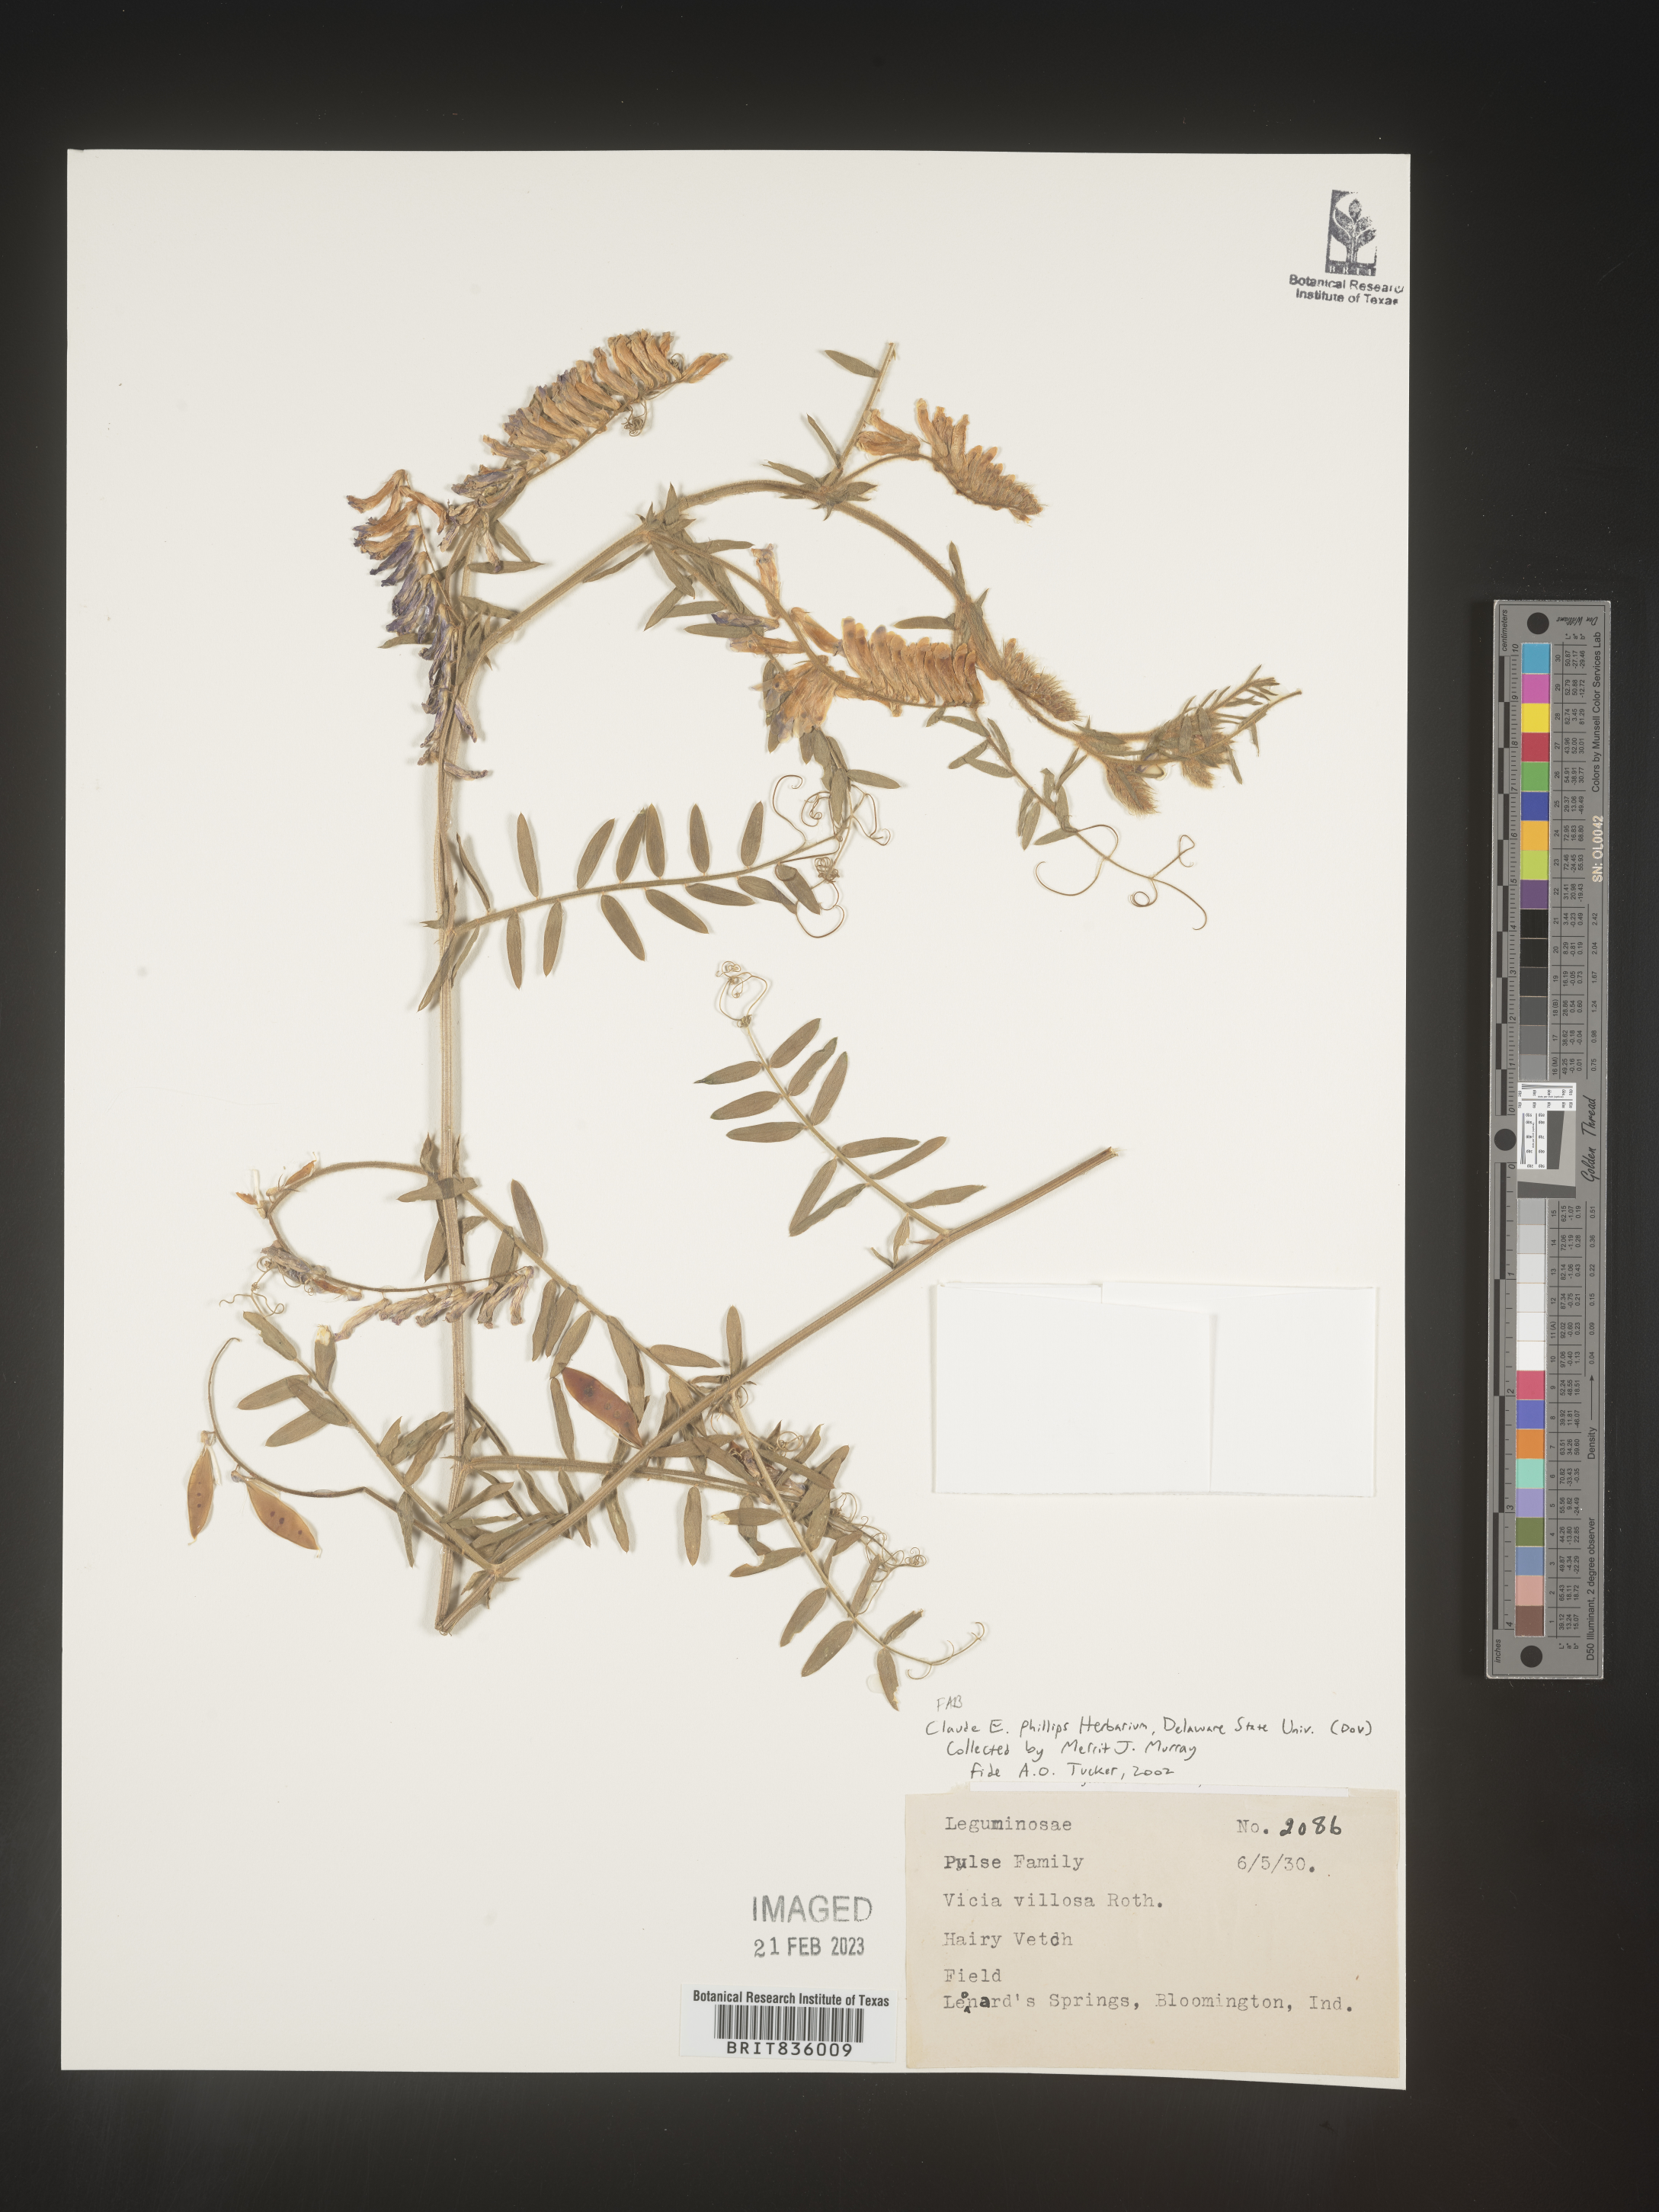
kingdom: Plantae
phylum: Tracheophyta
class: Magnoliopsida
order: Fabales
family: Fabaceae
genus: Vicia
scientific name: Vicia villosa
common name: Fodder vetch
